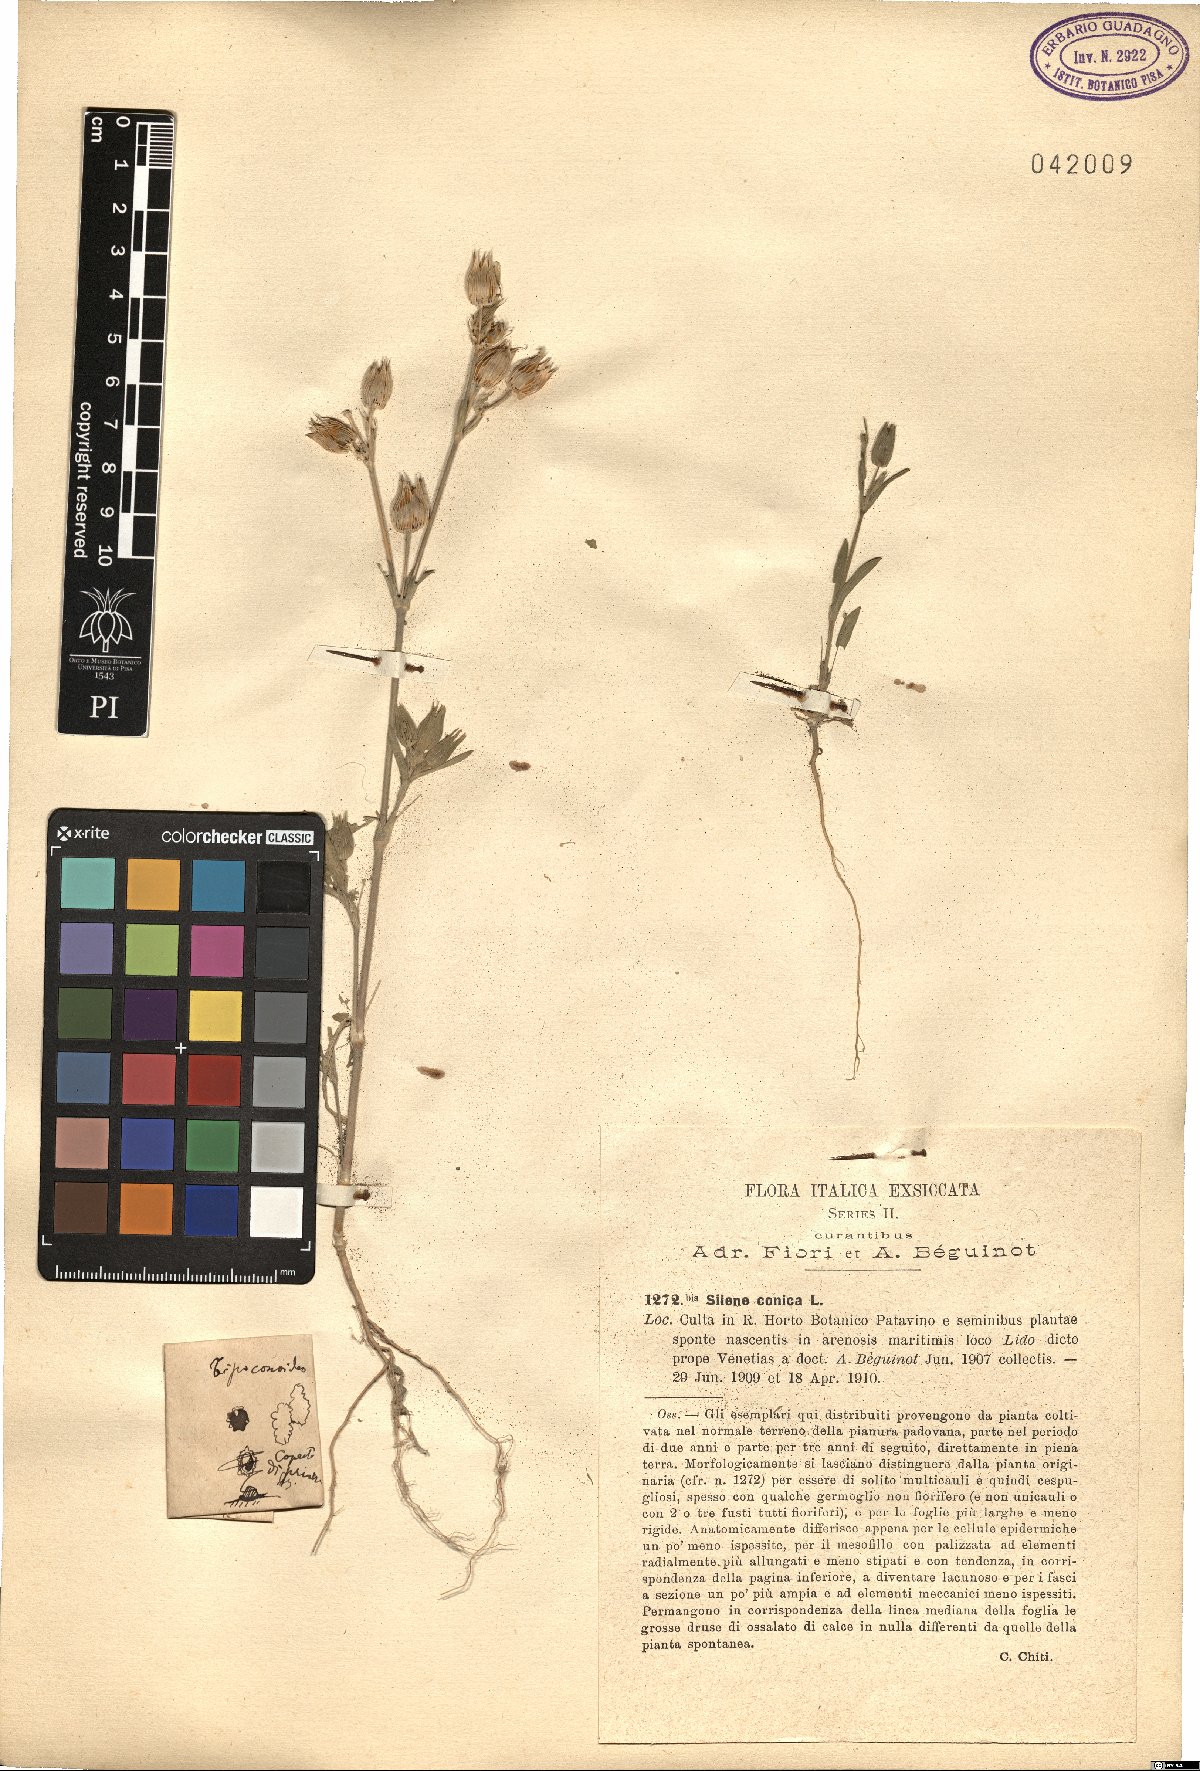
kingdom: Plantae
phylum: Tracheophyta
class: Magnoliopsida
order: Caryophyllales
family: Caryophyllaceae
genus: Silene
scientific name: Silene conica
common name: Sand catchfly
